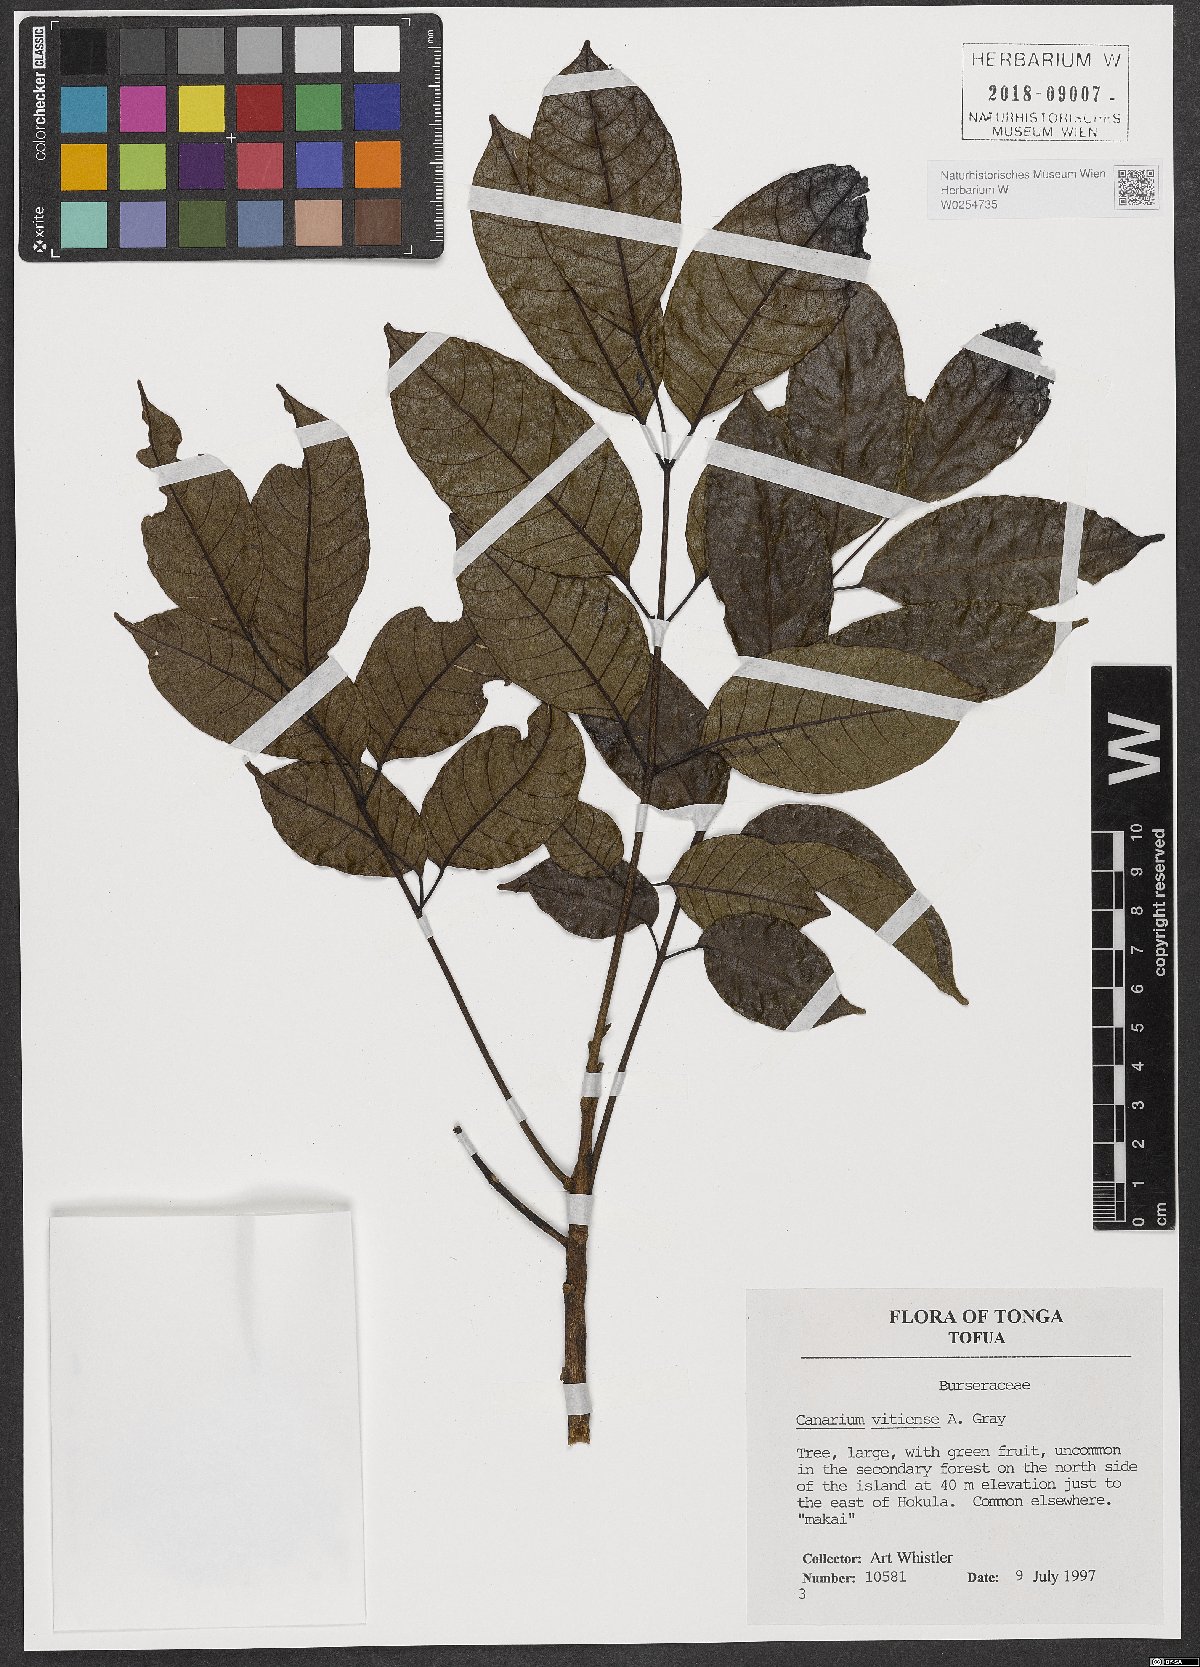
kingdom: Plantae
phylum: Tracheophyta
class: Magnoliopsida
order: Sapindales
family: Burseraceae
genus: Canarium
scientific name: Canarium vitiense
